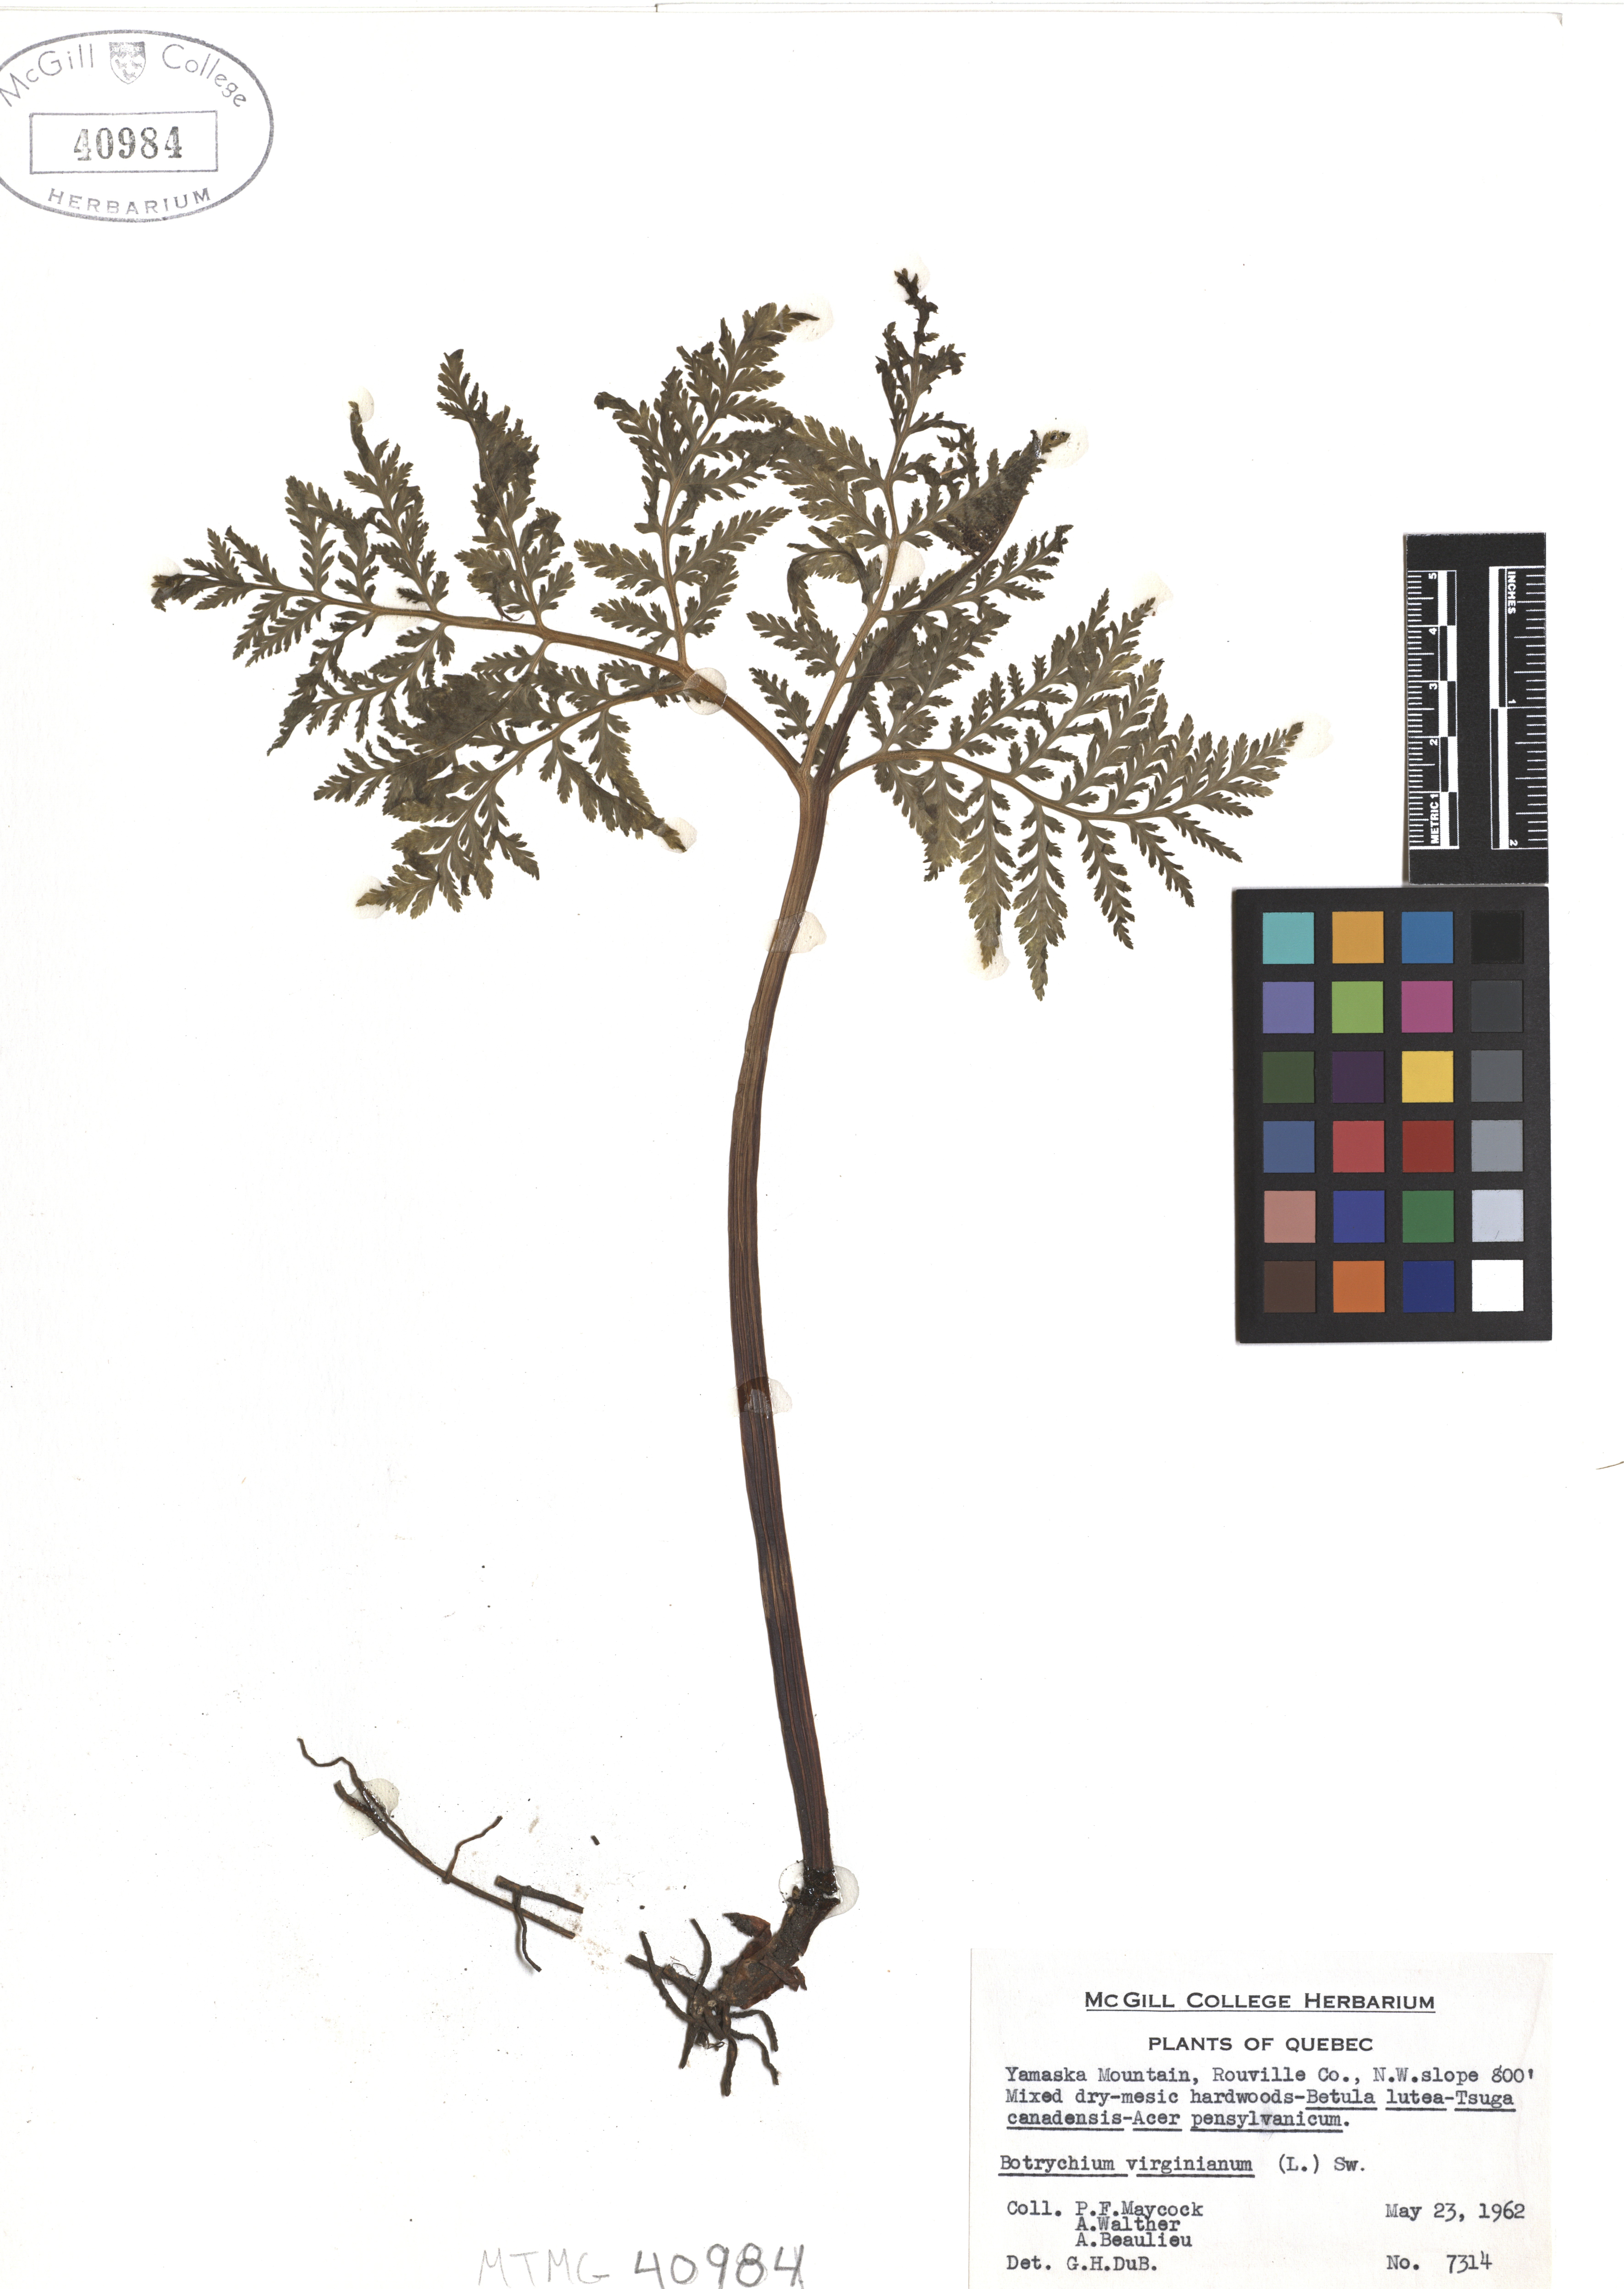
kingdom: Plantae
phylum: Tracheophyta
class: Polypodiopsida
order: Ophioglossales
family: Ophioglossaceae
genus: Botrypus
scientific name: Botrypus virginianus
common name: Common grapefern
